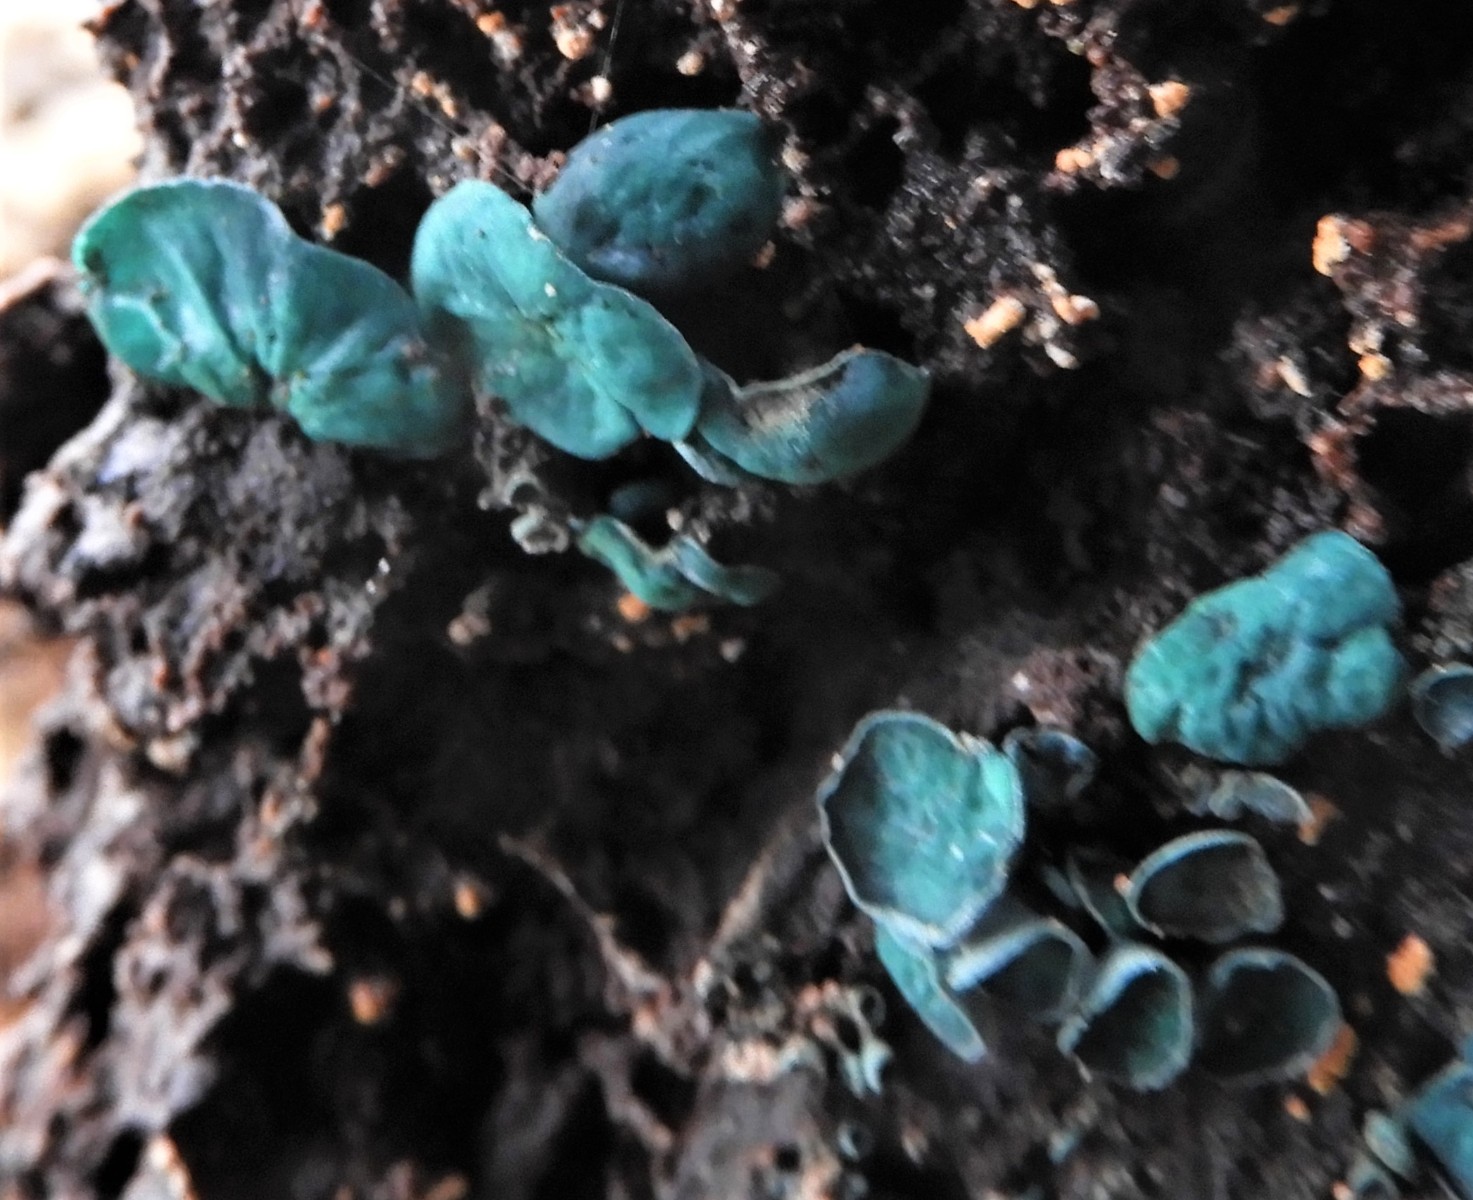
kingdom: Fungi
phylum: Ascomycota
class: Leotiomycetes
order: Helotiales
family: Chlorociboriaceae
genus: Chlorociboria
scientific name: Chlorociboria aeruginascens
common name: almindelig grønskive
